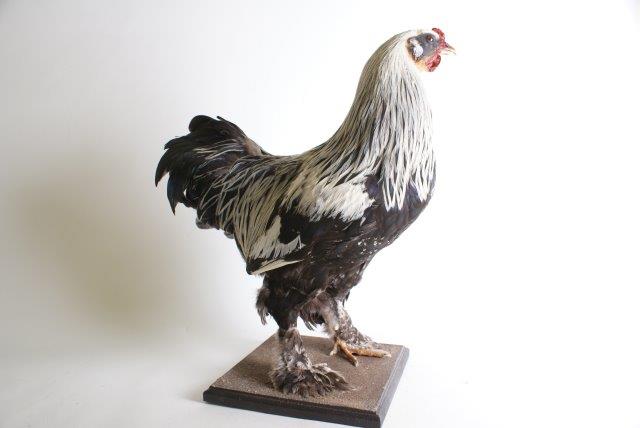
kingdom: Animalia
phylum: Chordata
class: Aves
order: Galliformes
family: Phasianidae
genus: Gallus
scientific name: Gallus gallus
